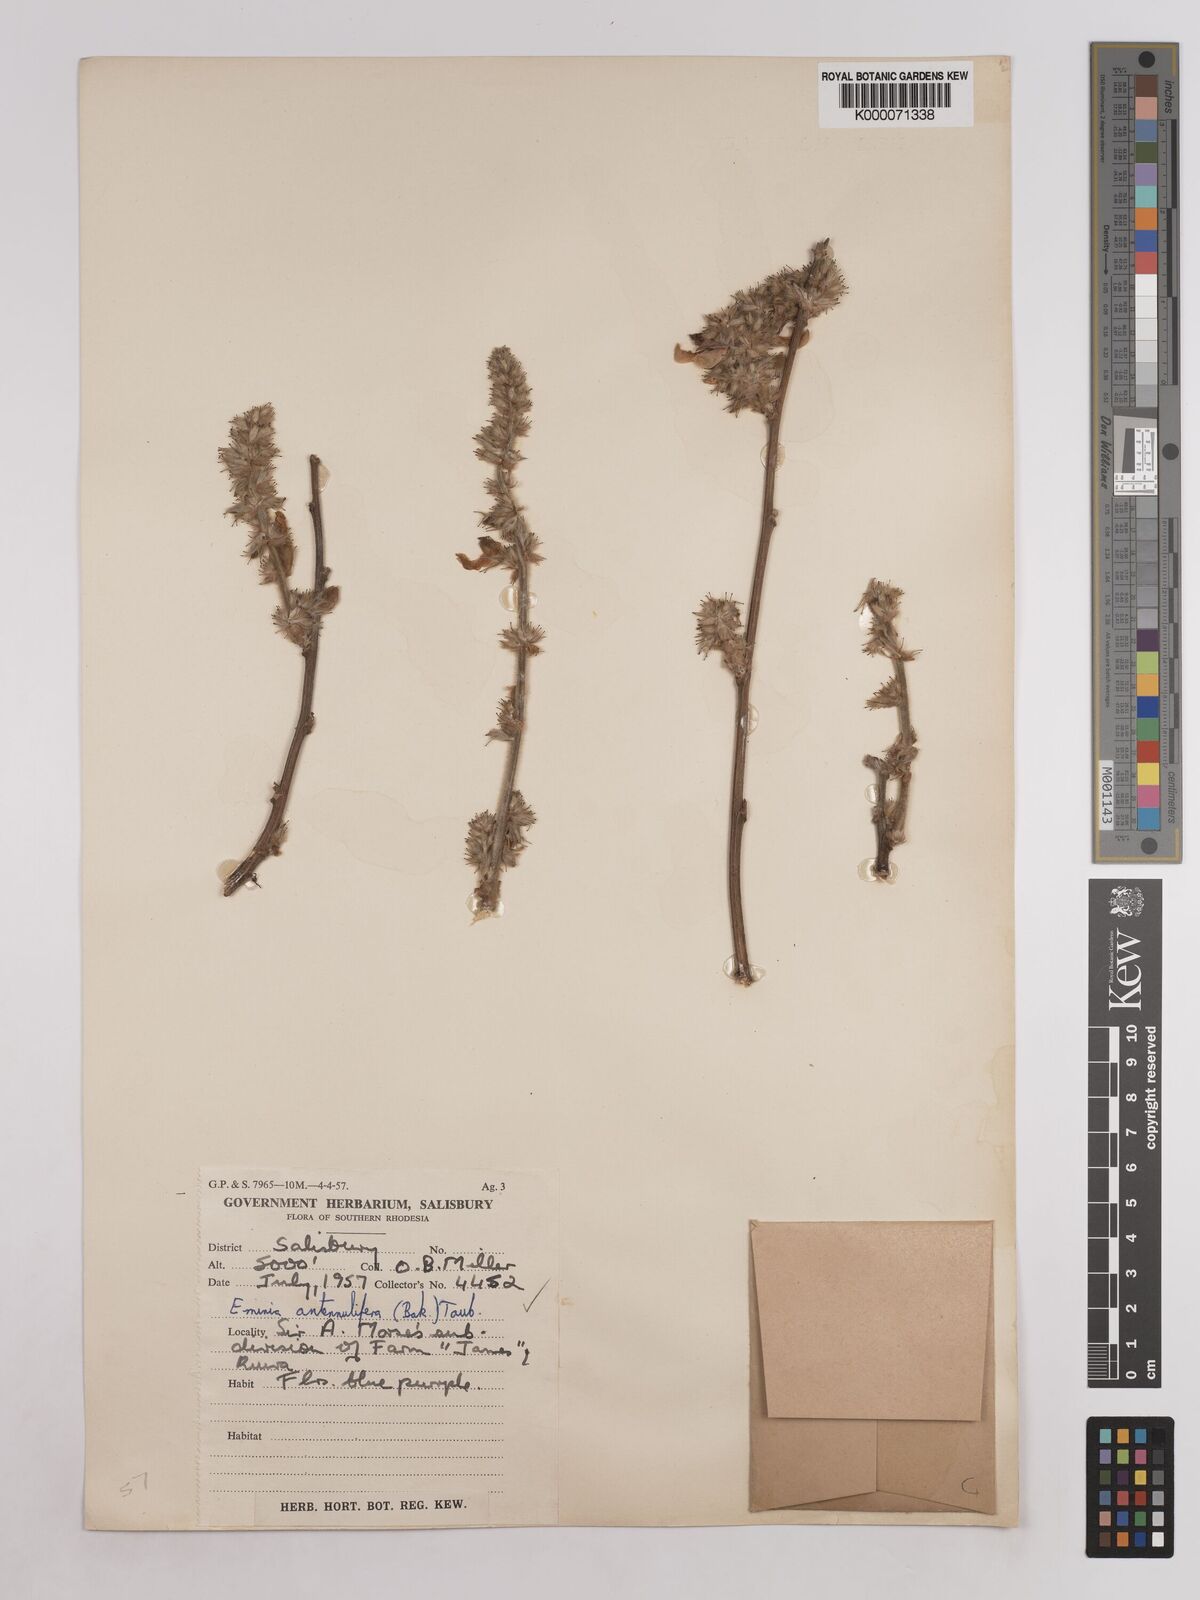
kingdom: Plantae
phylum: Tracheophyta
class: Magnoliopsida
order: Fabales
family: Fabaceae
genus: Eminia
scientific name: Eminia antennulifera
